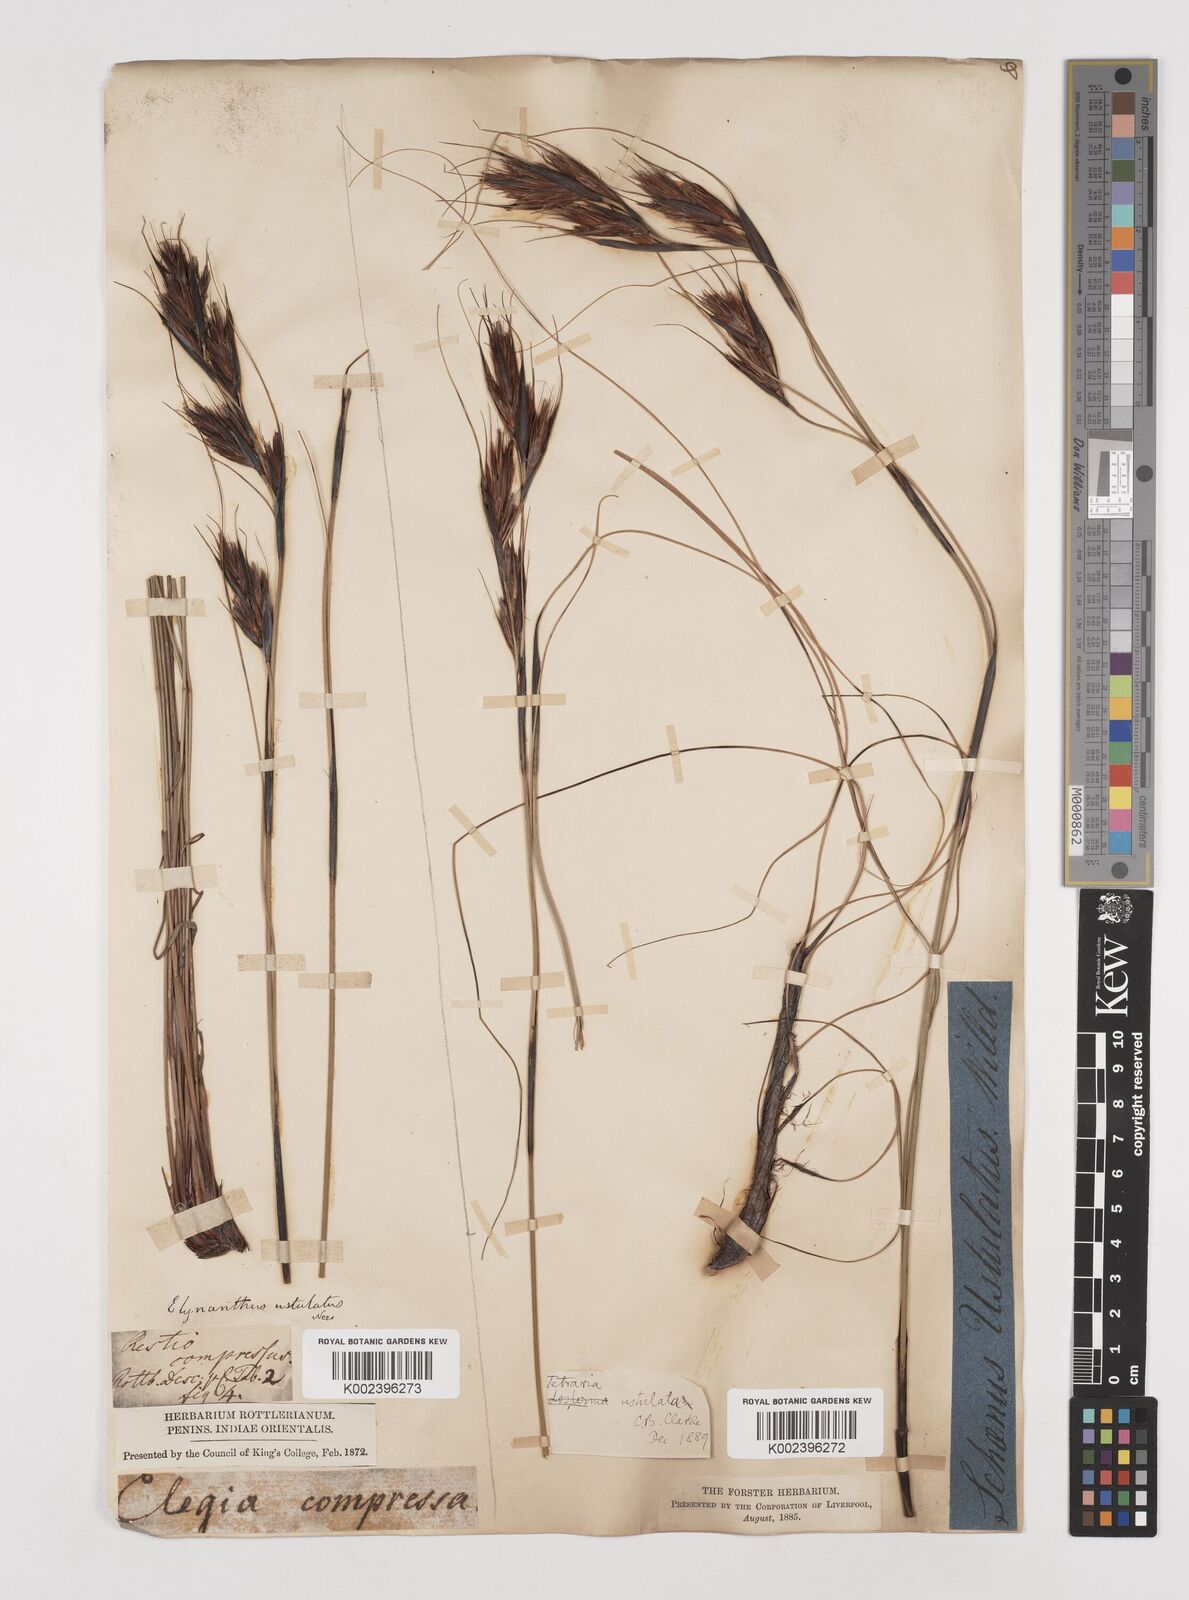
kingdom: Plantae
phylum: Tracheophyta
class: Liliopsida
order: Poales
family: Cyperaceae
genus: Tetraria
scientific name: Tetraria ustulata
